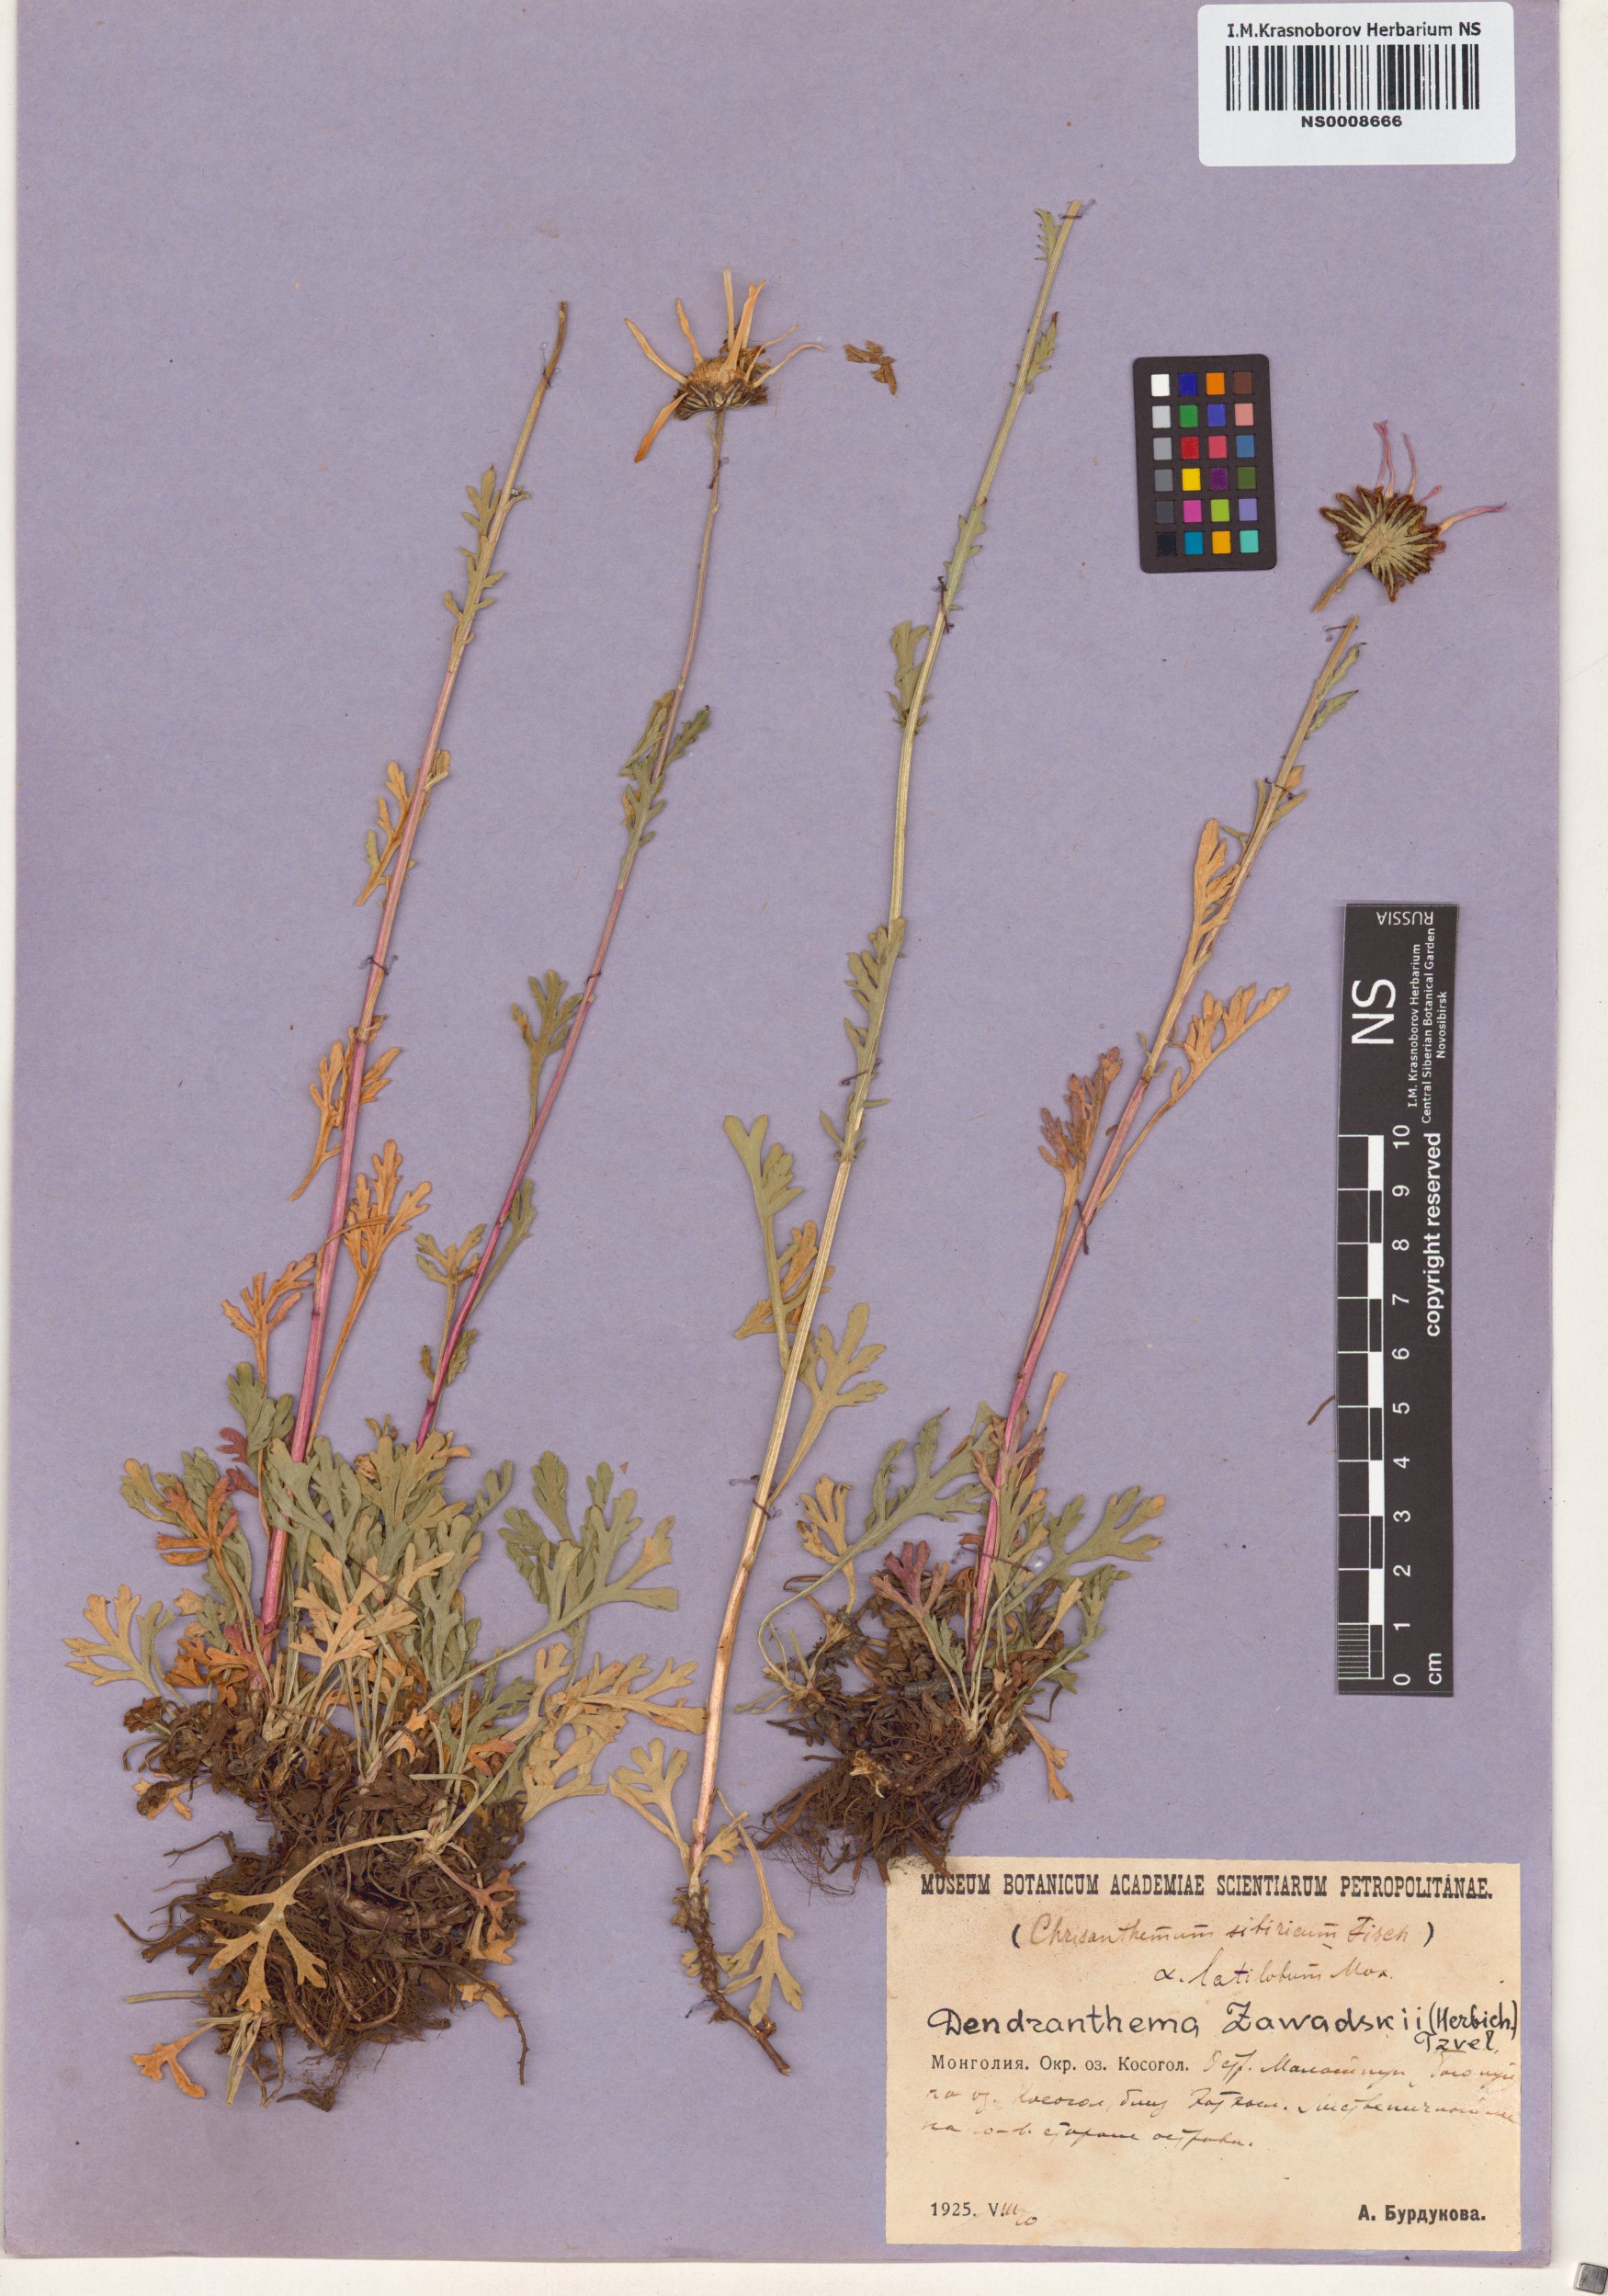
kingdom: Plantae
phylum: Tracheophyta
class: Magnoliopsida
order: Asterales
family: Asteraceae
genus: Chrysanthemum
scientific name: Chrysanthemum zawadzkii
